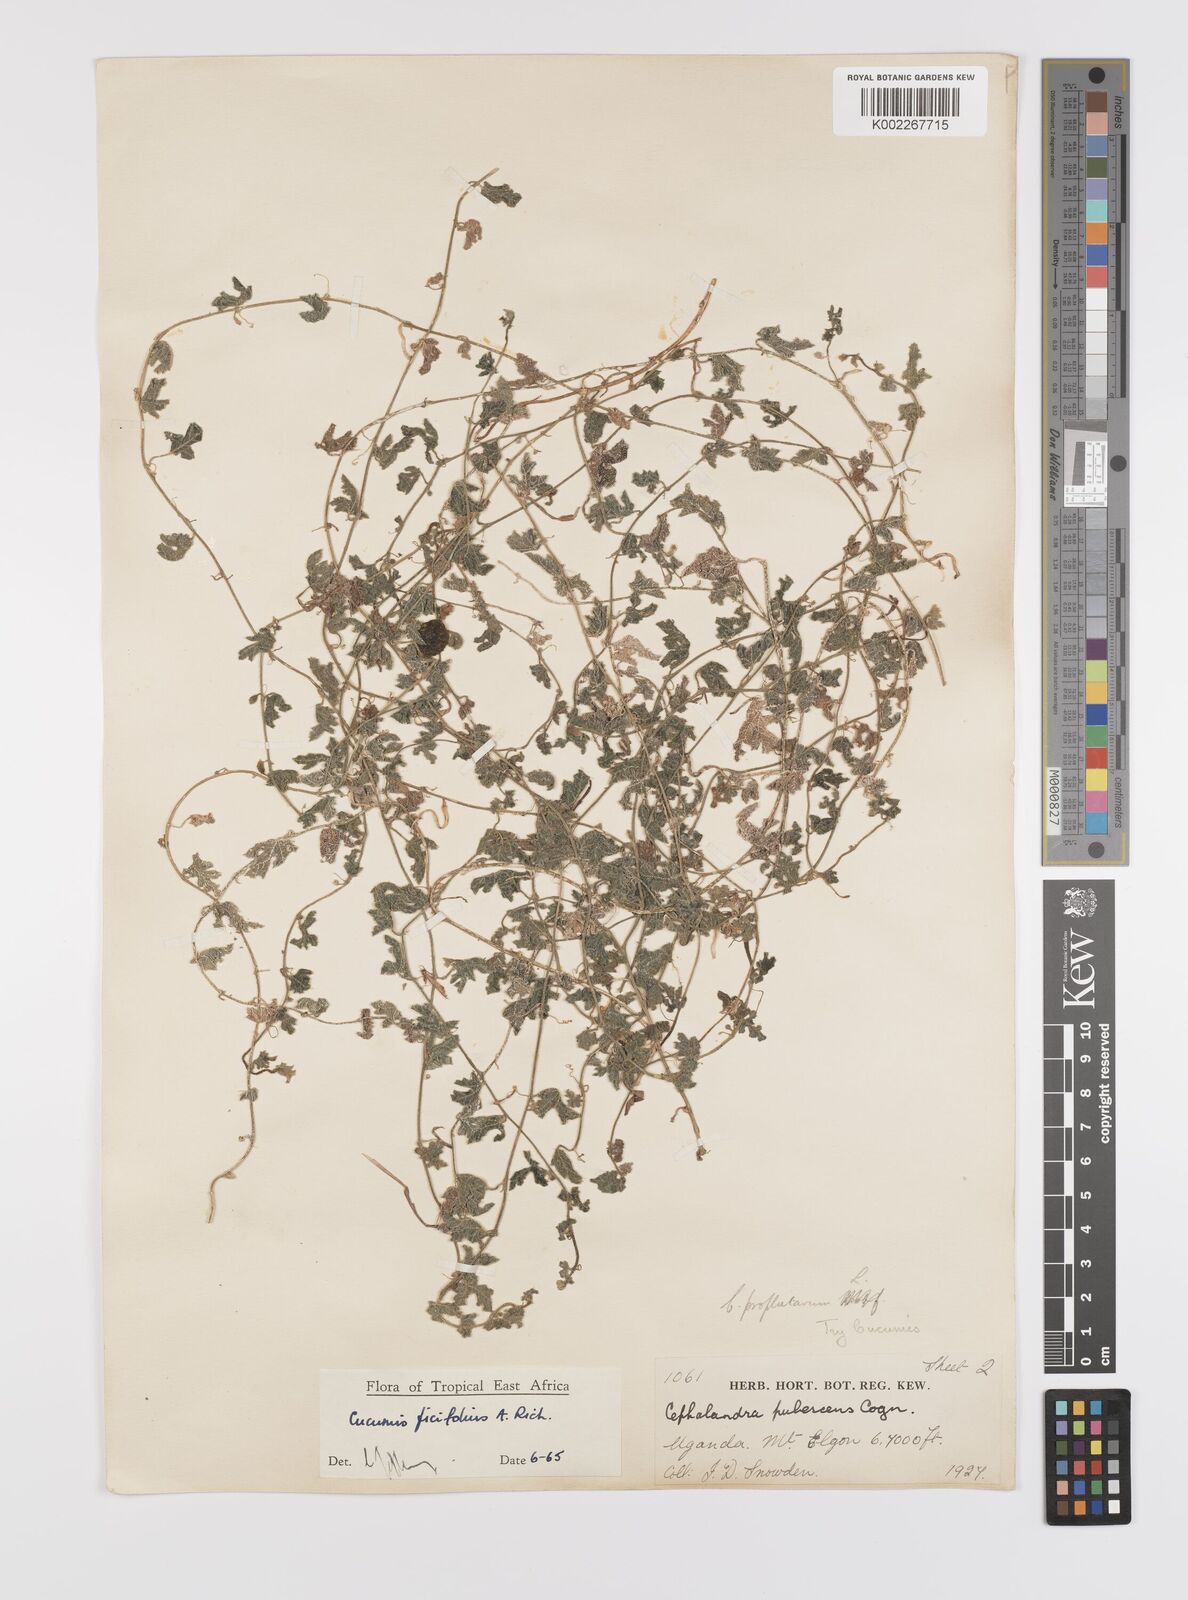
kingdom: Plantae
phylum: Tracheophyta
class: Magnoliopsida
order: Cucurbitales
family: Cucurbitaceae
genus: Cucumis
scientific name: Cucumis ficifolius
